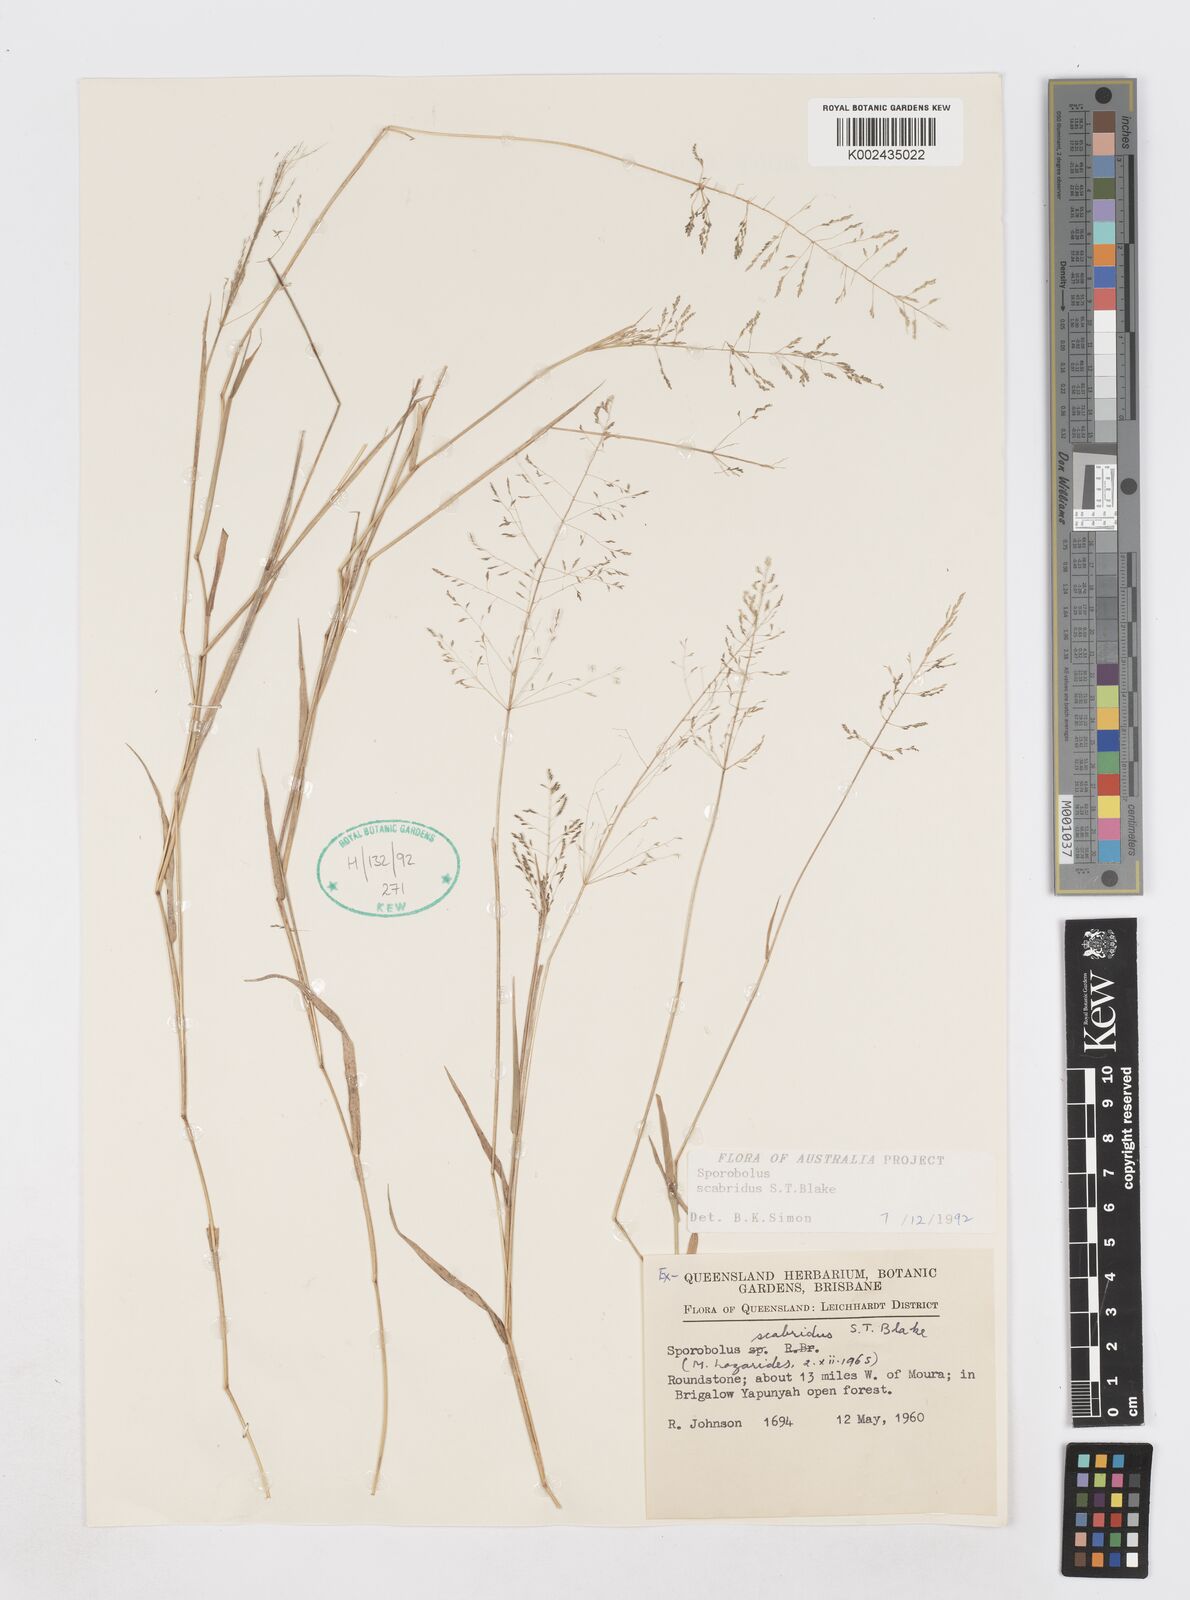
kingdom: Plantae
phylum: Tracheophyta
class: Liliopsida
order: Poales
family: Poaceae
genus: Sporobolus
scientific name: Sporobolus scabridus
